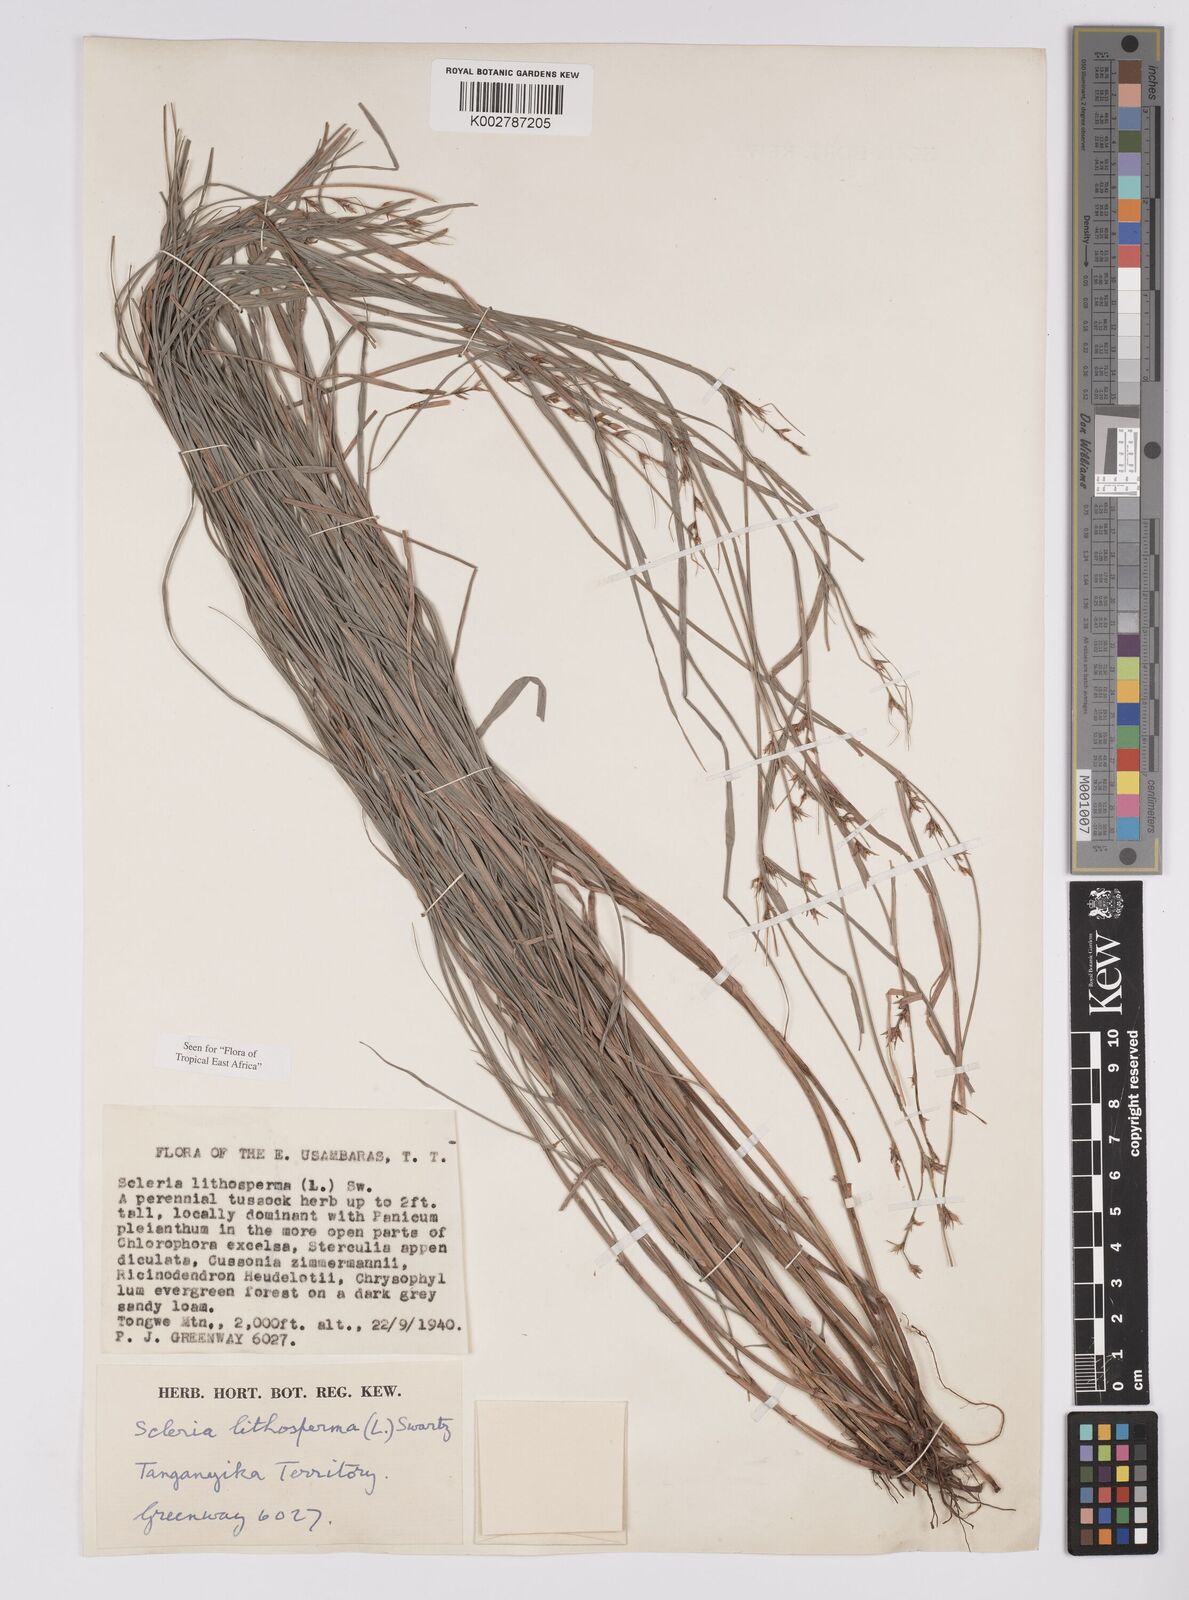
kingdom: Plantae
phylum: Tracheophyta
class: Liliopsida
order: Poales
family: Cyperaceae
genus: Scleria
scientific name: Scleria lithosperma
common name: Florida keys nut-rush
